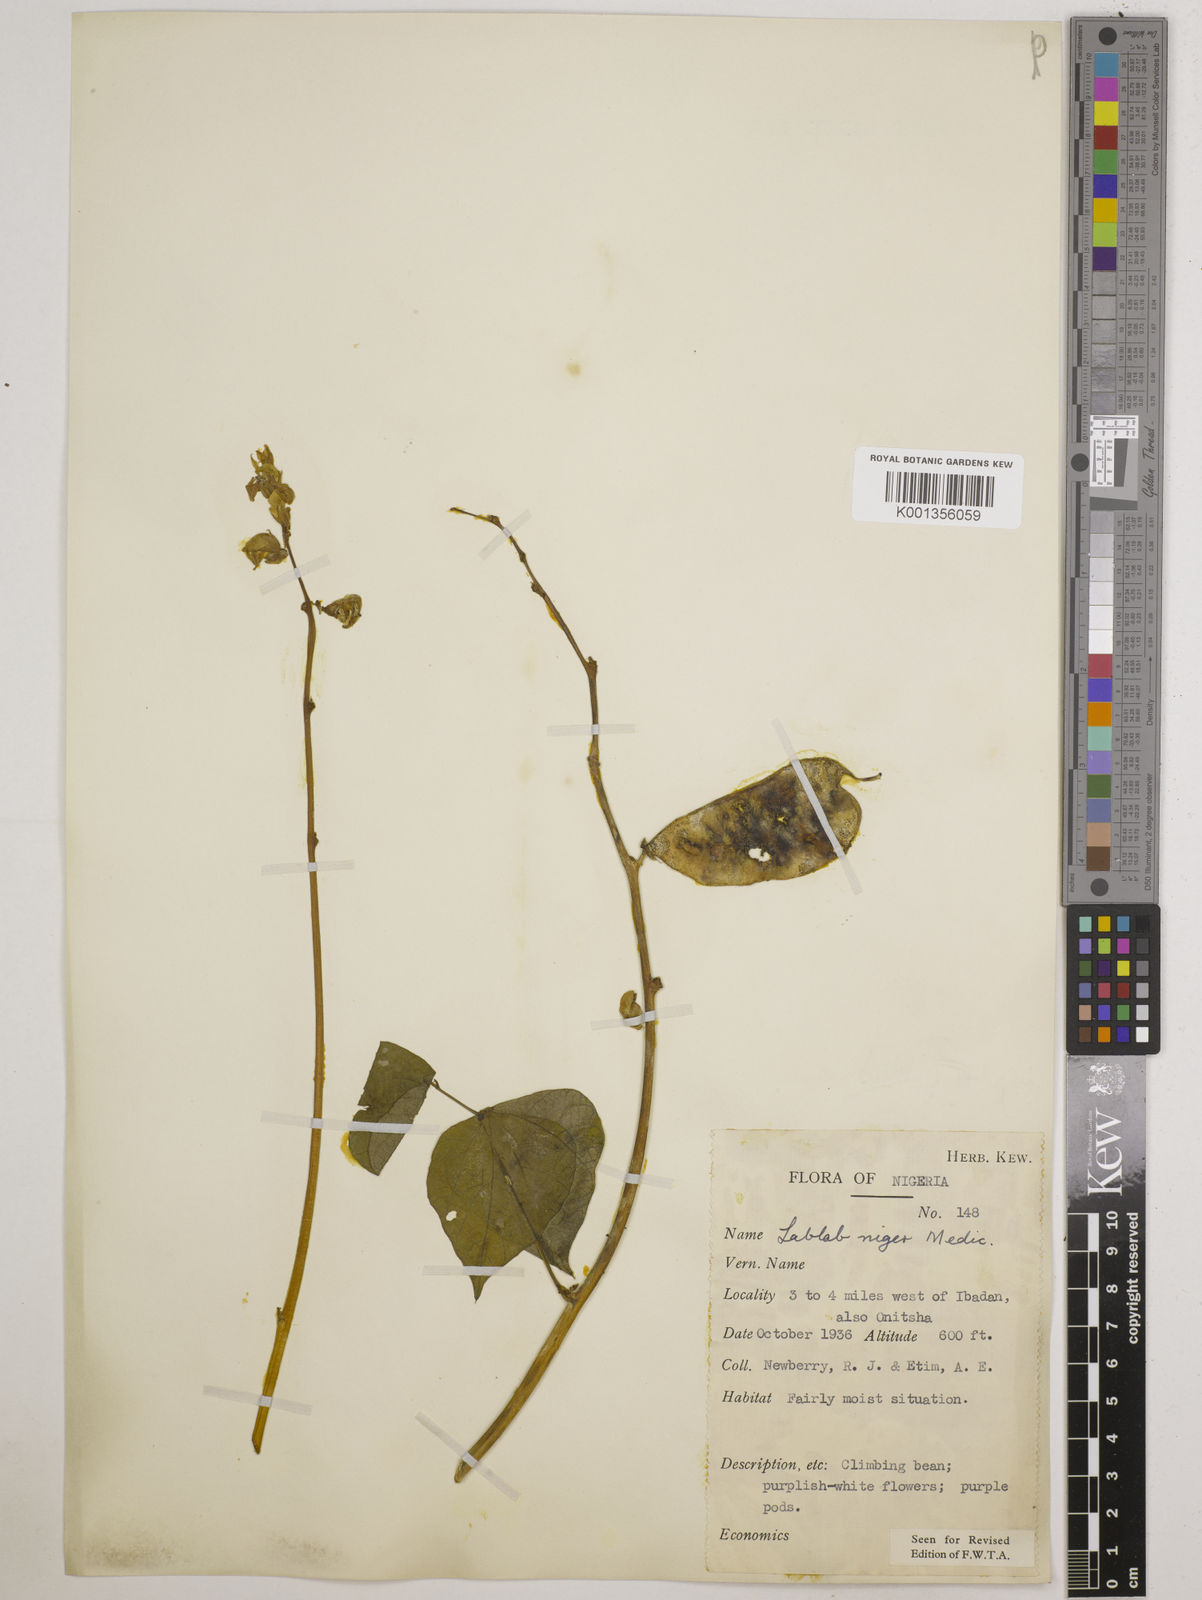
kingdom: Plantae
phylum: Tracheophyta
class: Magnoliopsida
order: Fabales
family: Fabaceae
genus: Lablab
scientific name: Lablab purpureus
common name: Lablab-bean
